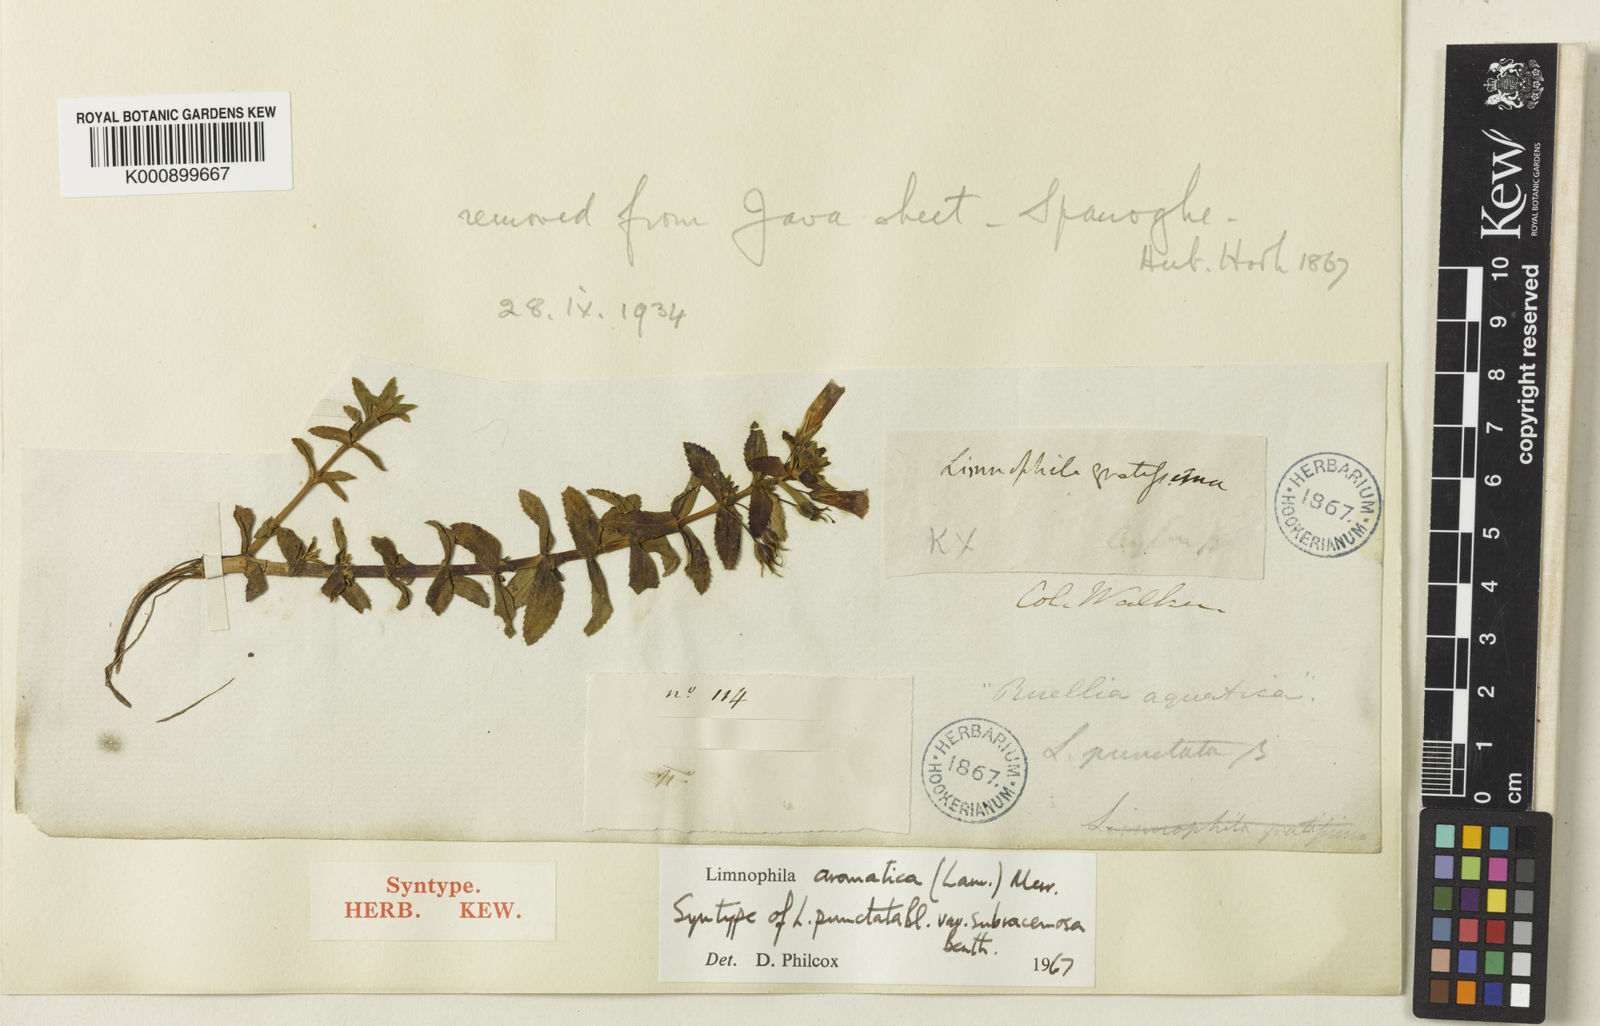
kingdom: Plantae
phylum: Tracheophyta
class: Magnoliopsida
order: Lamiales
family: Plantaginaceae
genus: Limnophila
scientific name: Limnophila aromatica
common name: Finger grass
